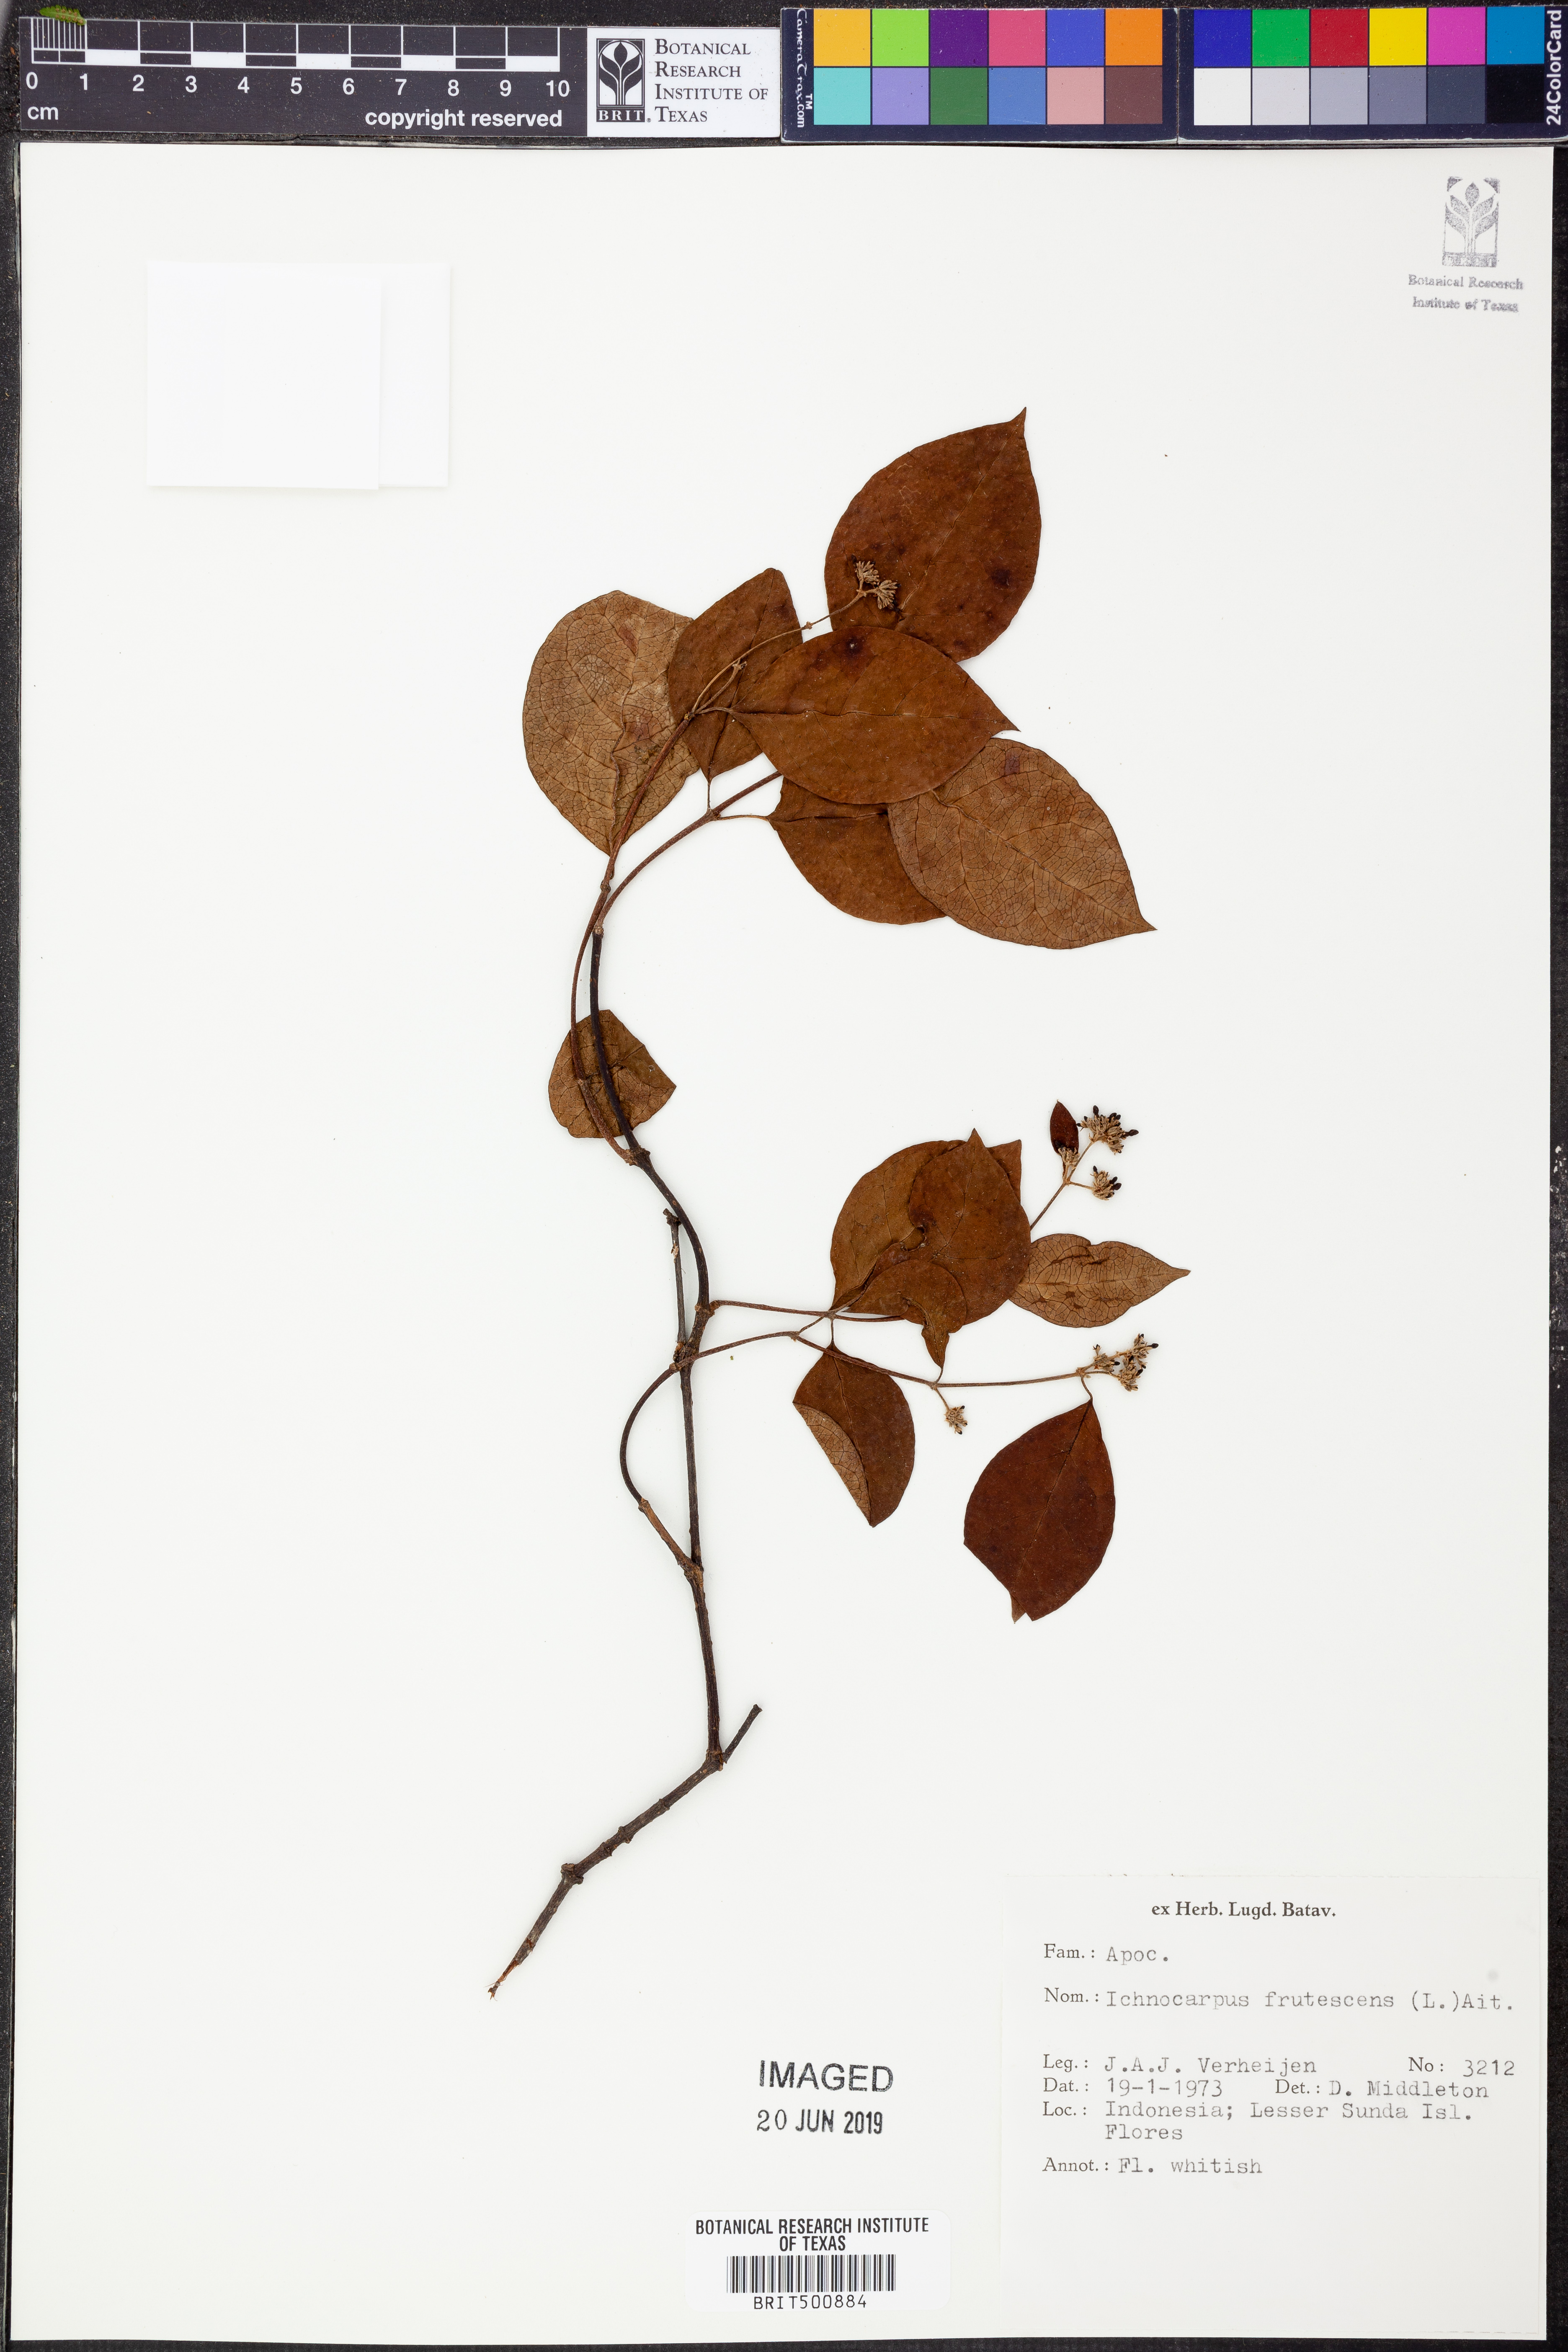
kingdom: Plantae
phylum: Tracheophyta
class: Magnoliopsida
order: Gentianales
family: Apocynaceae
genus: Ichnocarpus
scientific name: Ichnocarpus frutescens
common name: Ichnocarpus
